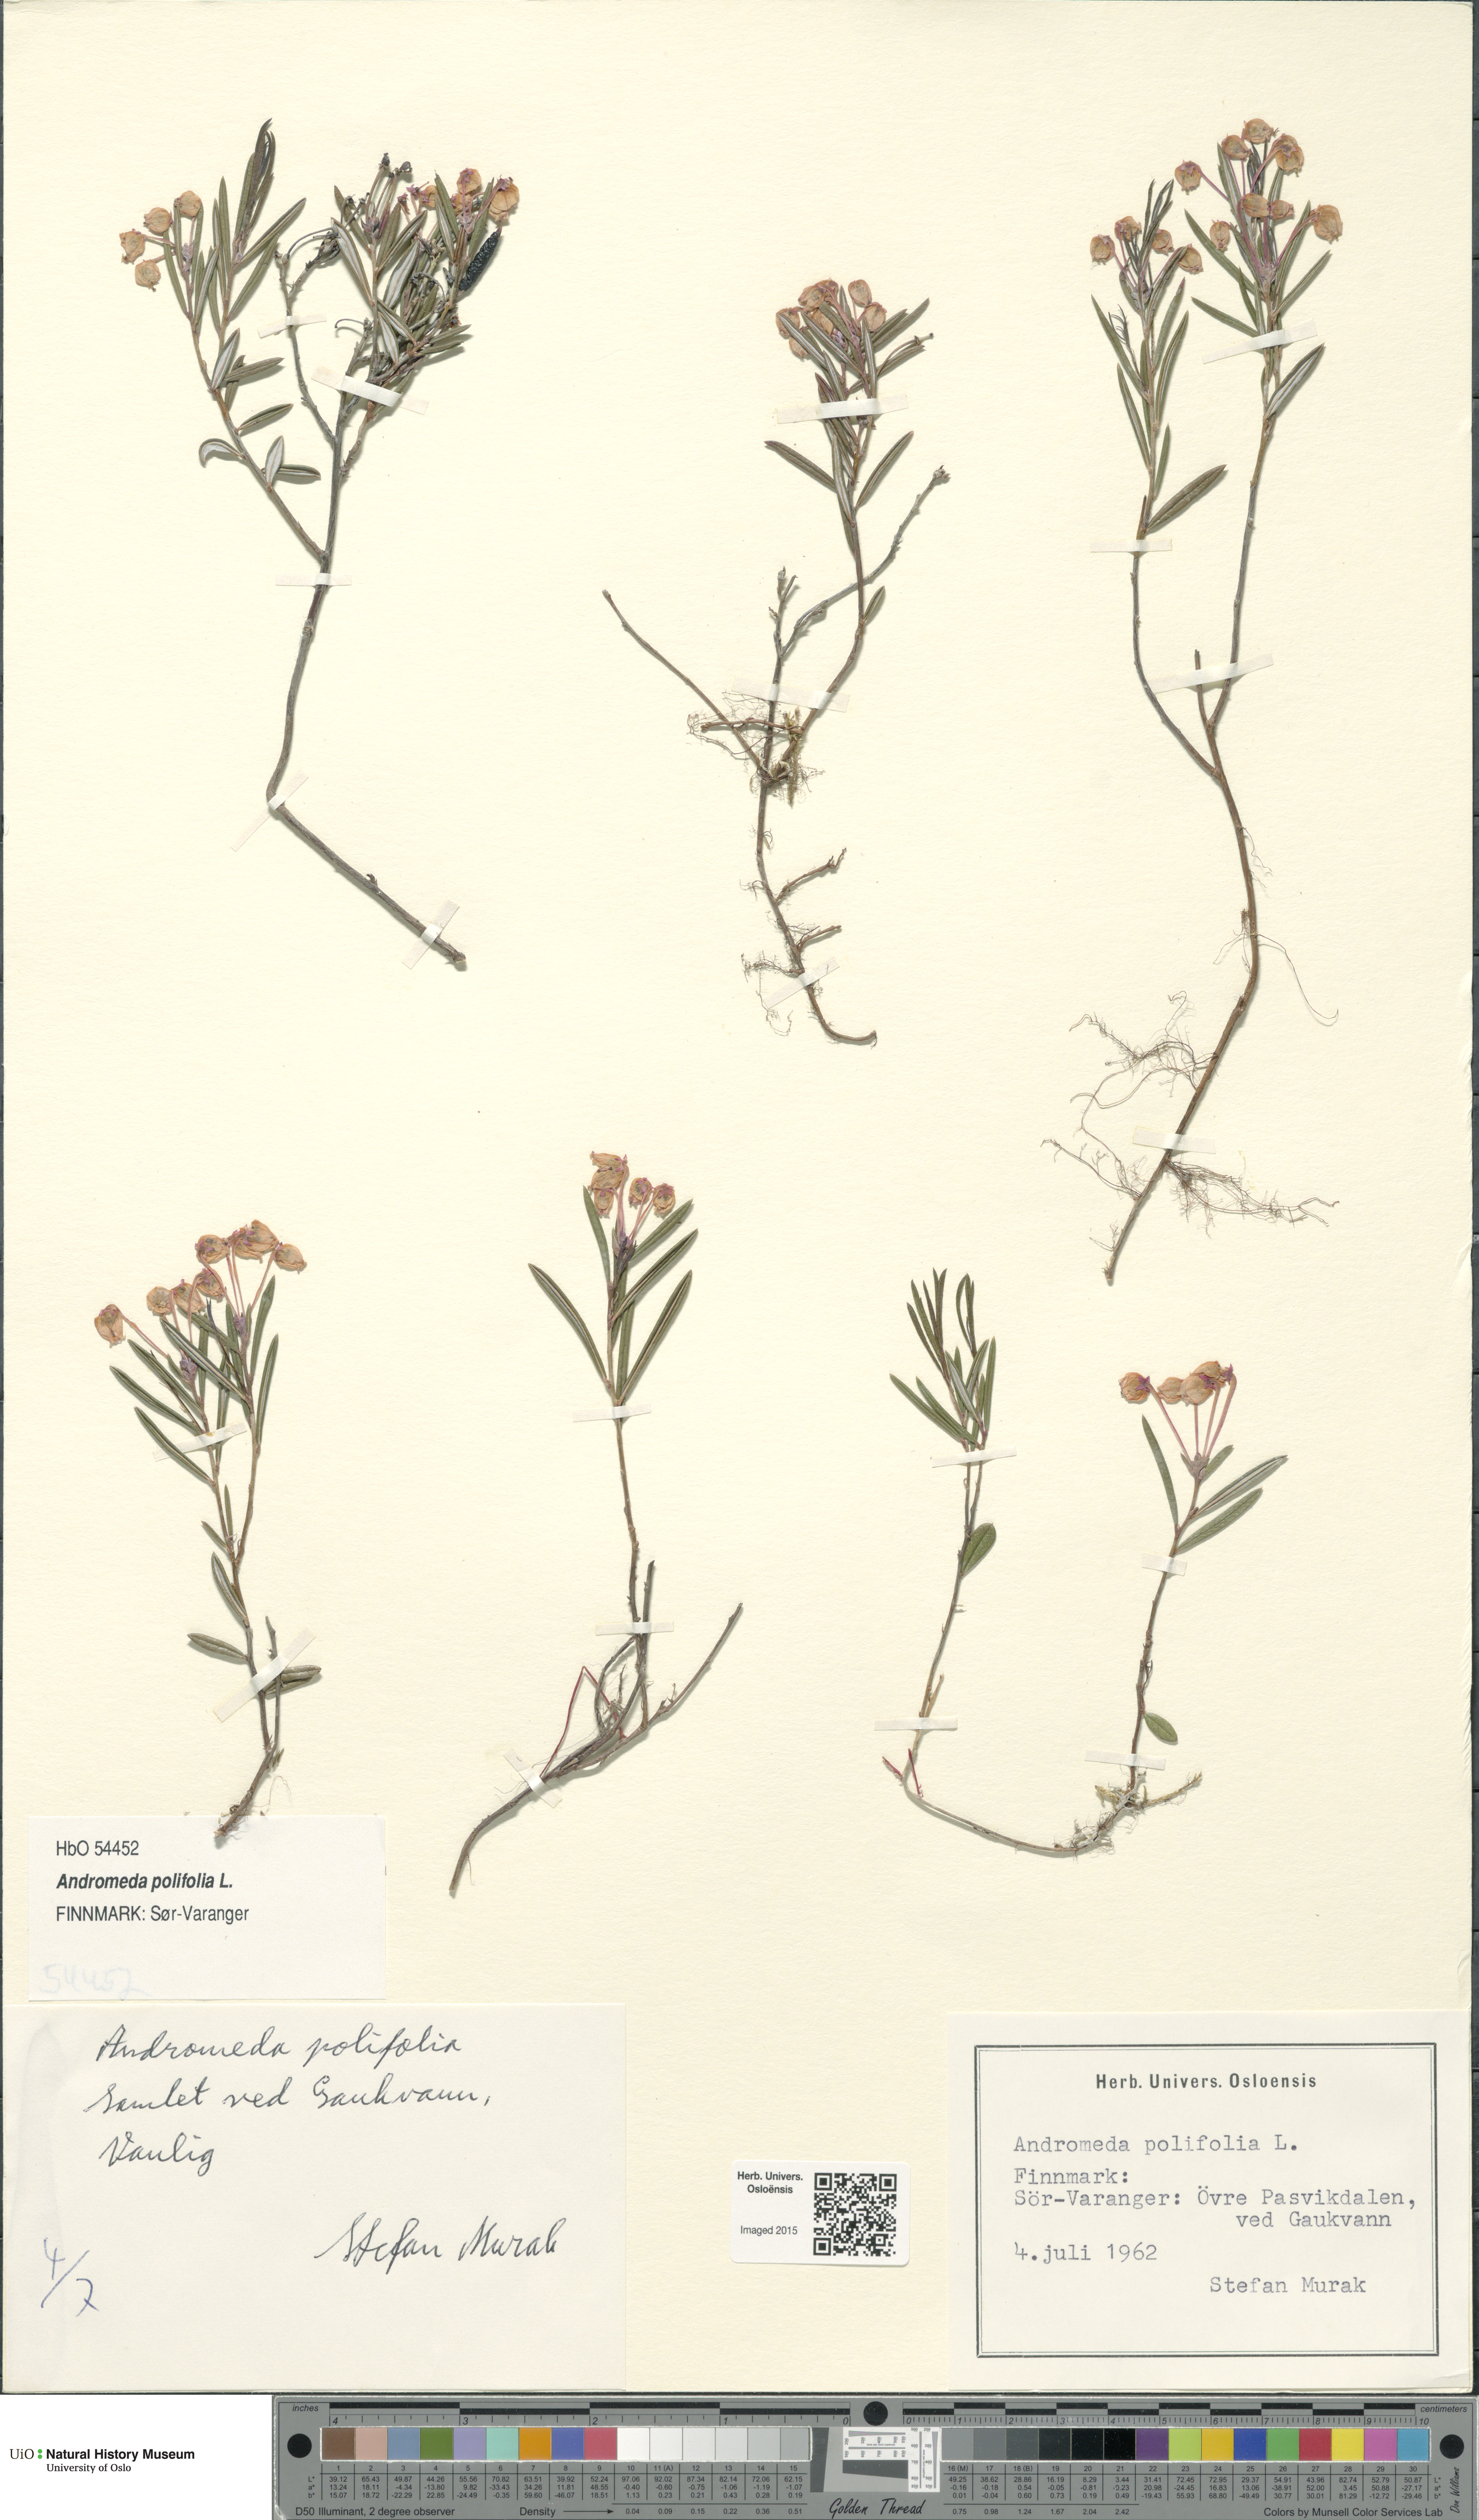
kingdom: Plantae
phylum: Tracheophyta
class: Magnoliopsida
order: Ericales
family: Ericaceae
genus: Andromeda
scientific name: Andromeda polifolia
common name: Bog-rosemary
